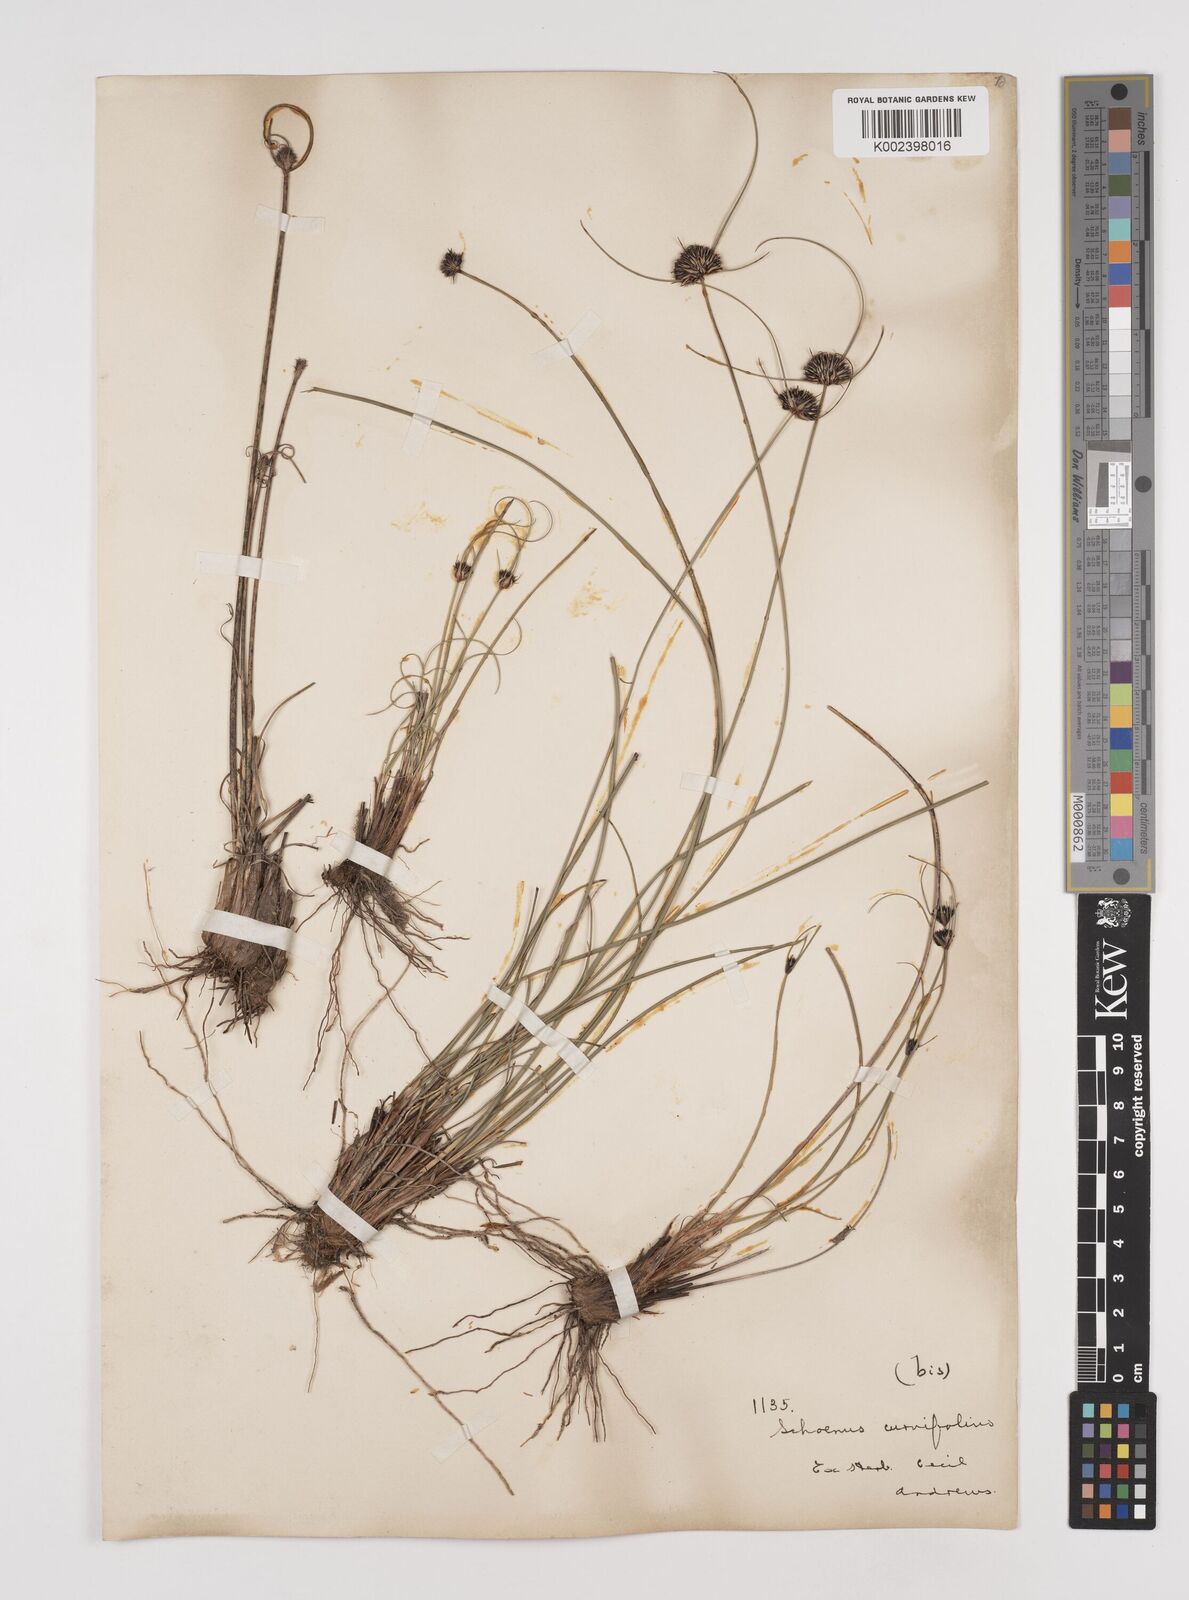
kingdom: Plantae
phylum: Tracheophyta
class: Liliopsida
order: Poales
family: Cyperaceae
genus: Schoenus
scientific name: Schoenus curvifolius
